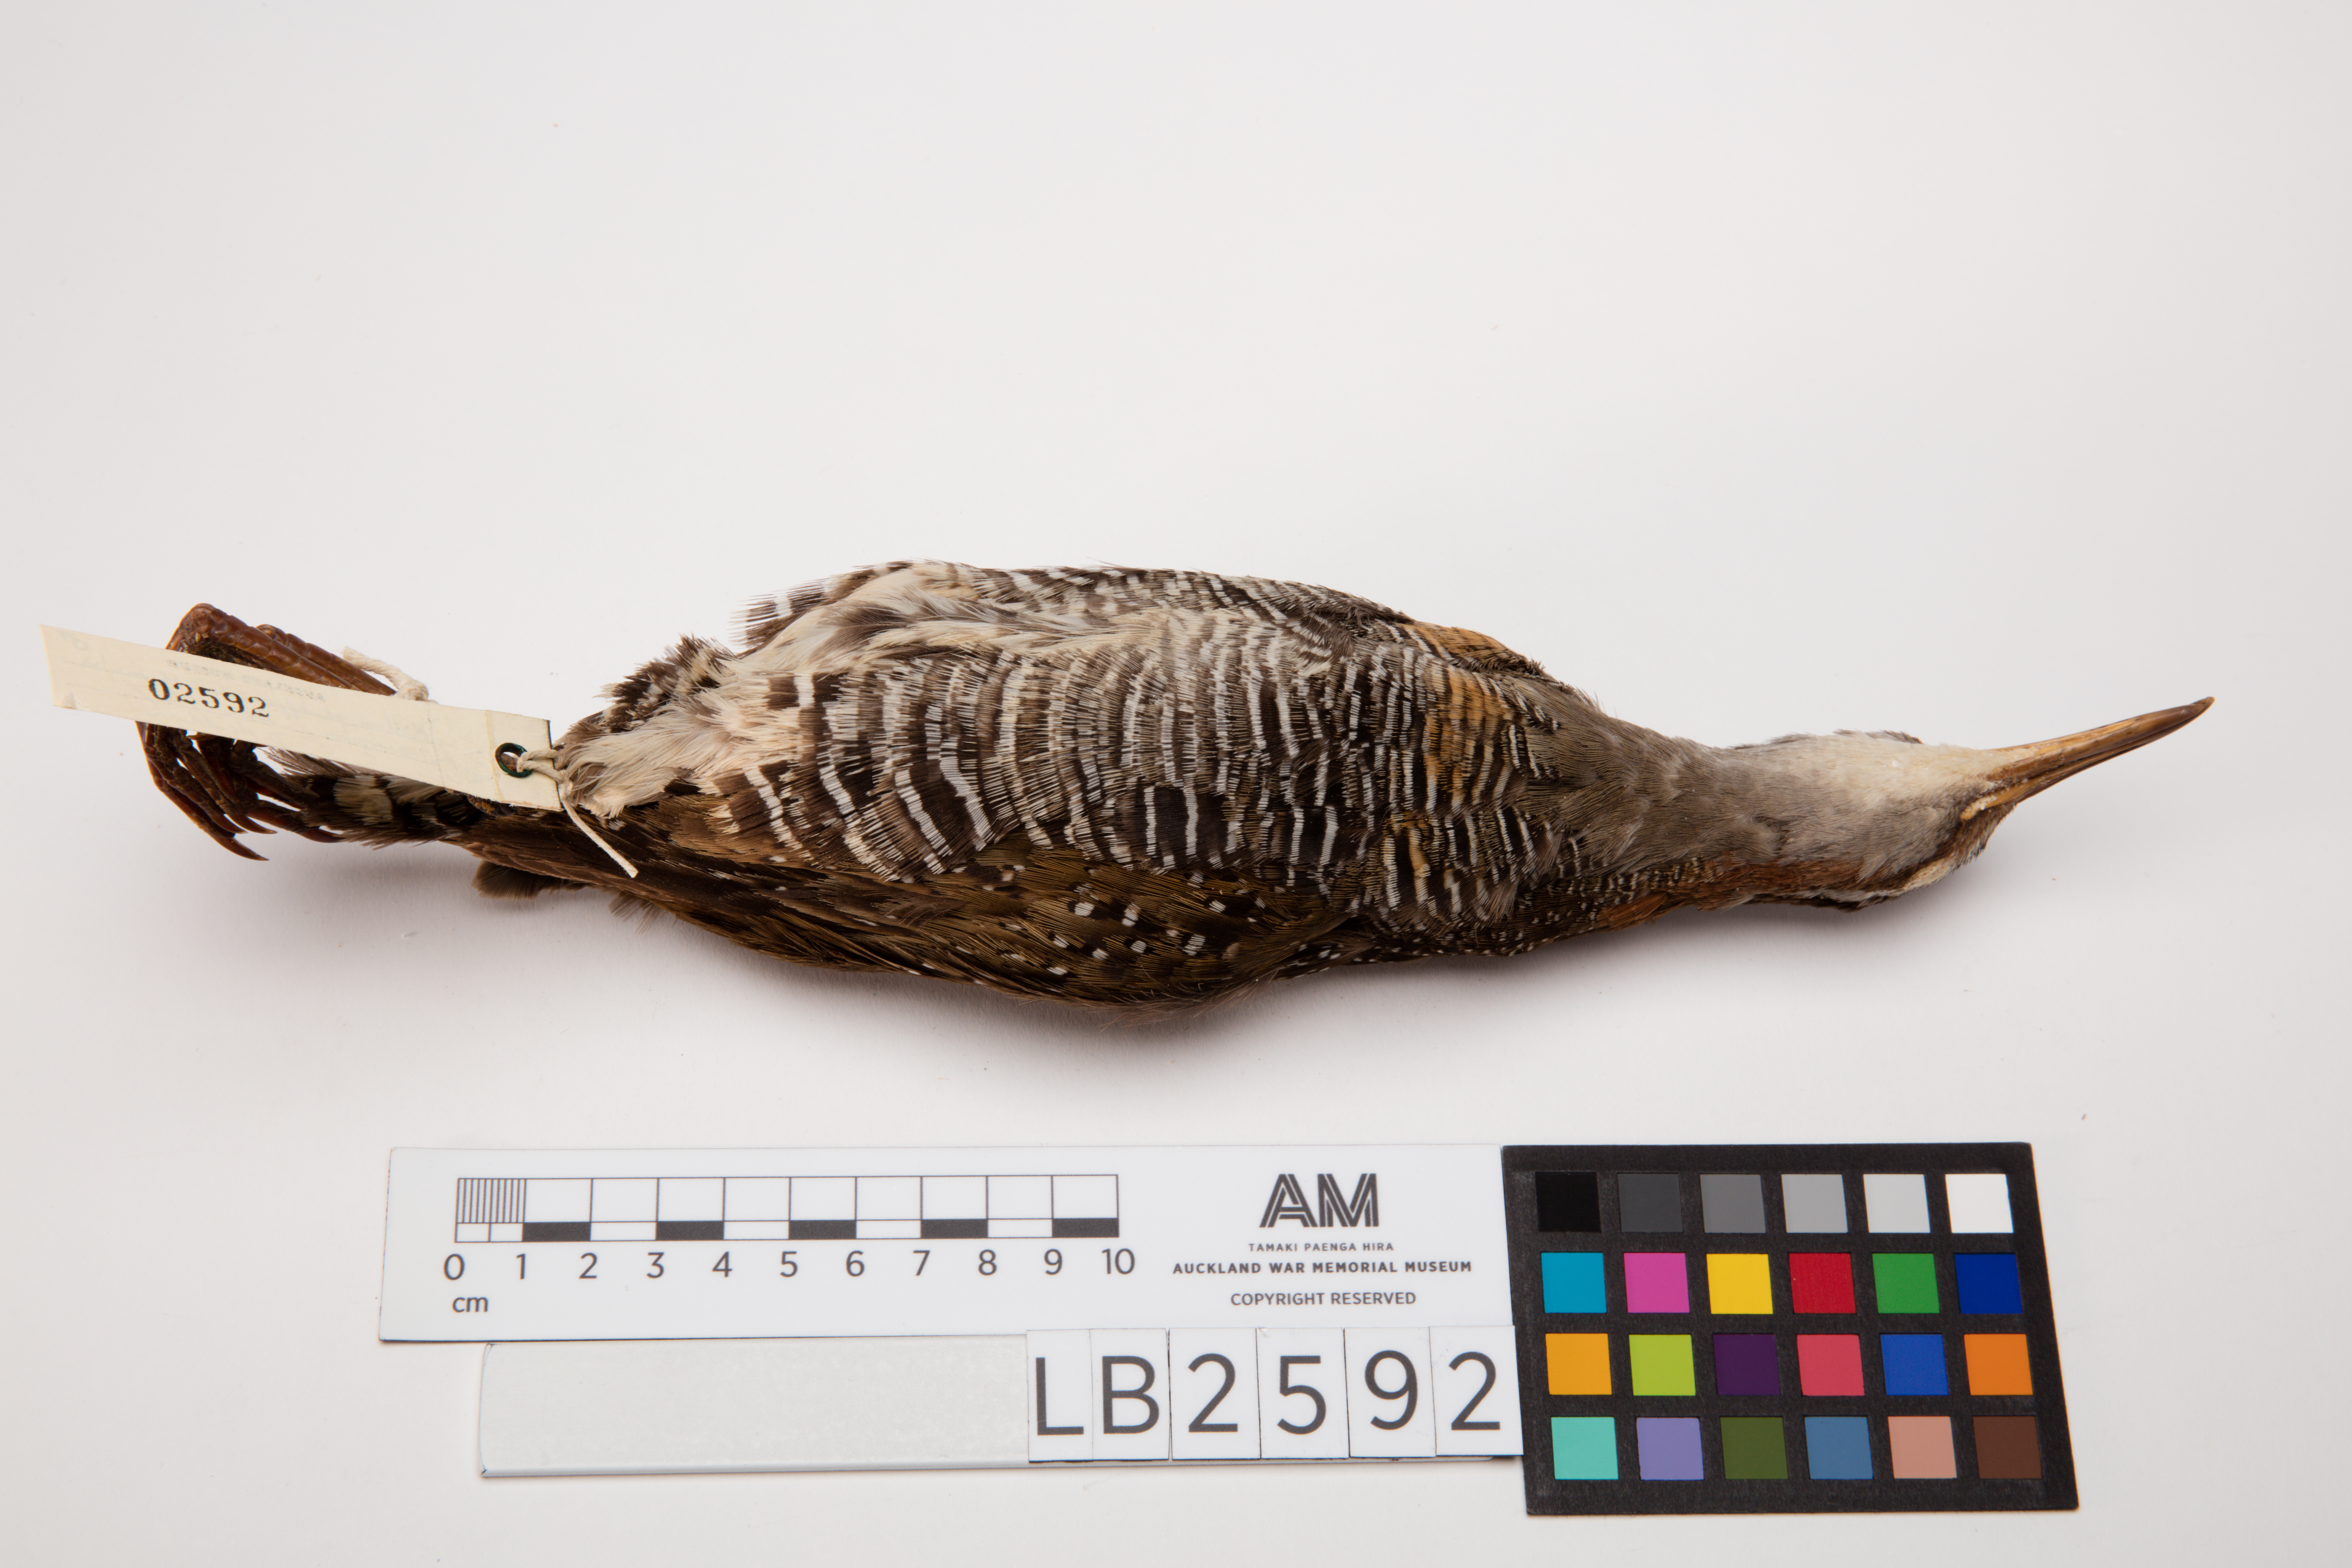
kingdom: Animalia
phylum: Chordata
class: Aves
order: Gruiformes
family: Rallidae
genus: Gallirallus
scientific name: Gallirallus philippensis
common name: Buff-banded rail
